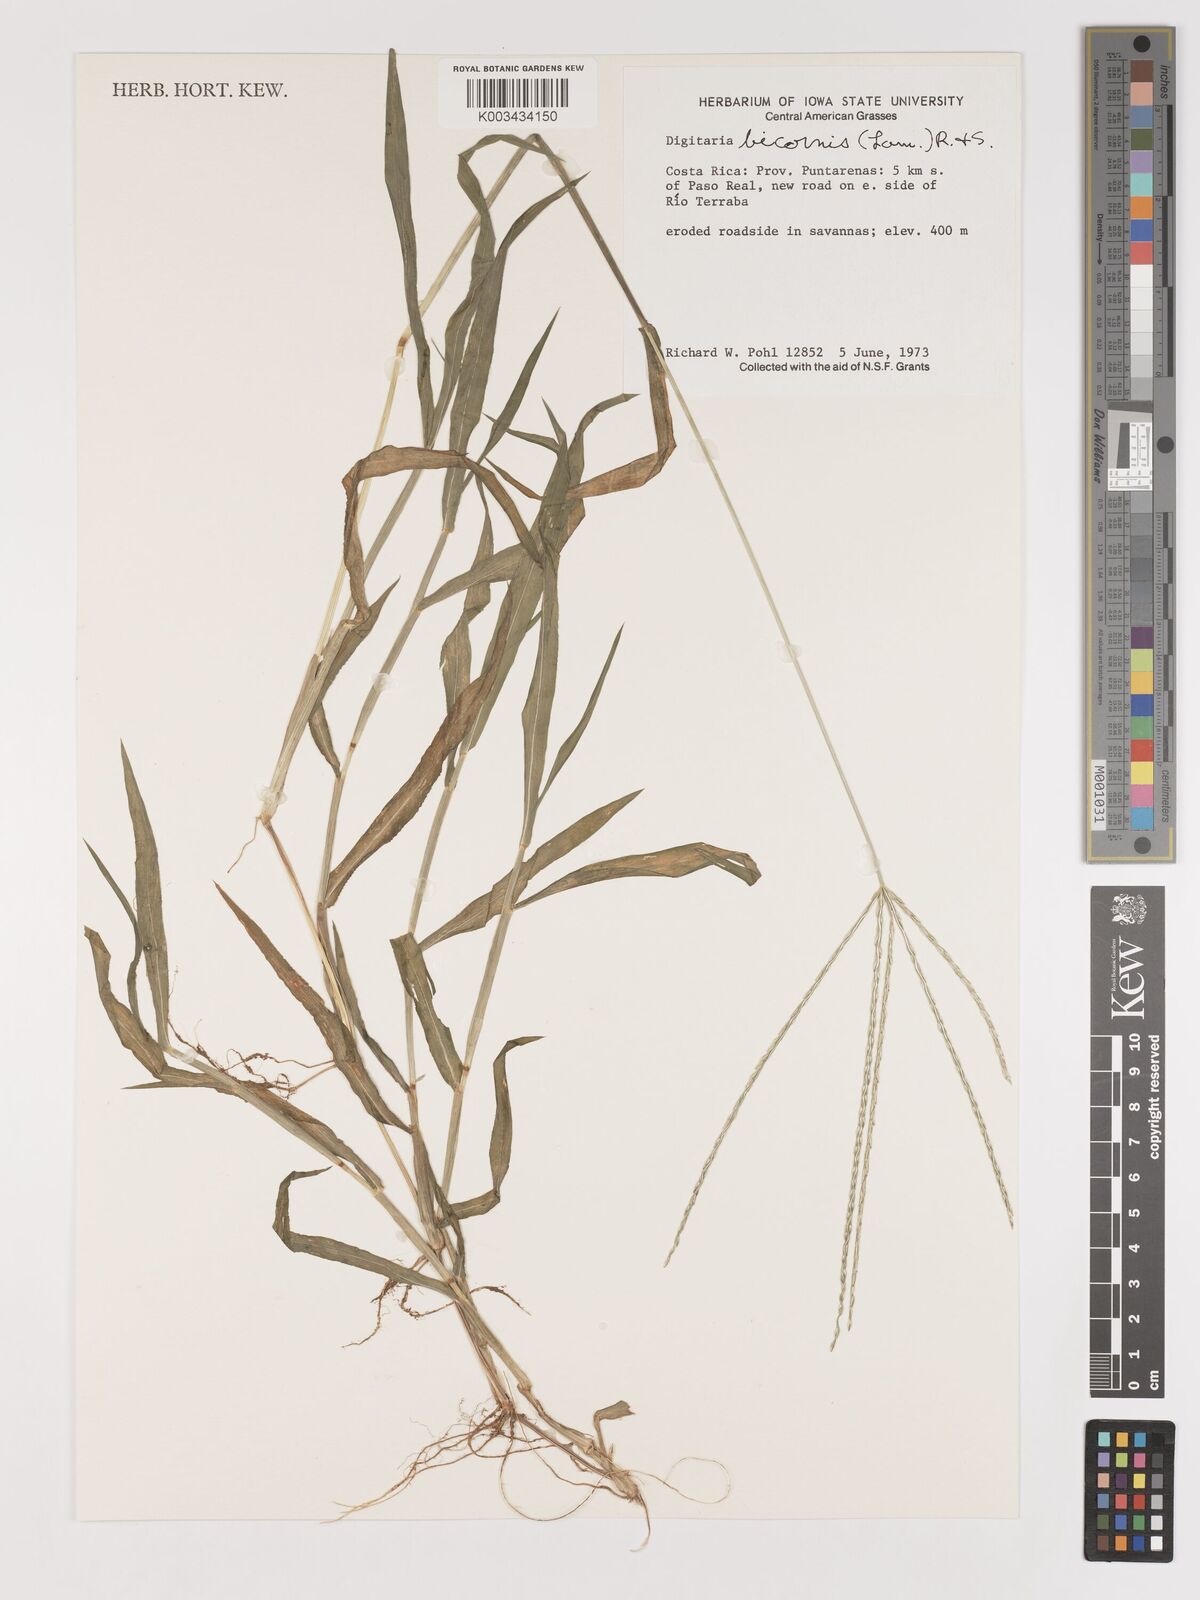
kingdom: Plantae
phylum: Tracheophyta
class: Liliopsida
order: Poales
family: Poaceae
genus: Digitaria
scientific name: Digitaria ciliaris
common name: Tropical finger-grass
